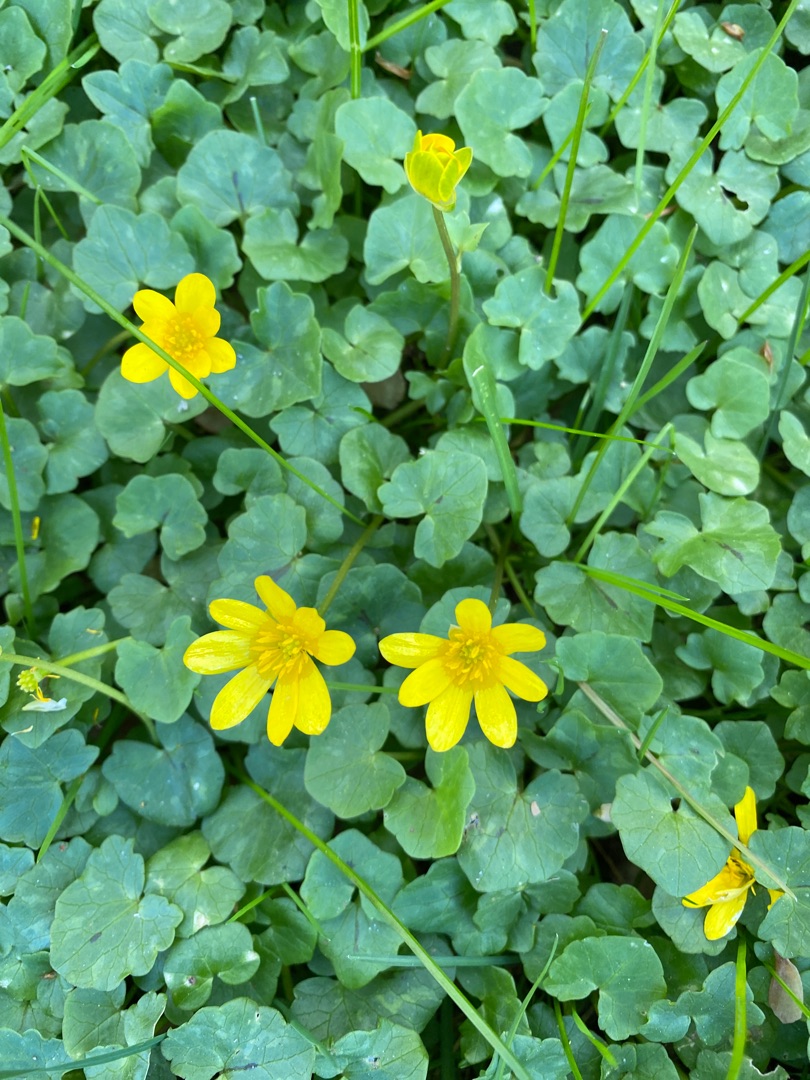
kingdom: Plantae
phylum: Tracheophyta
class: Magnoliopsida
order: Ranunculales
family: Ranunculaceae
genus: Ficaria
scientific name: Ficaria verna
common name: Vorterod
